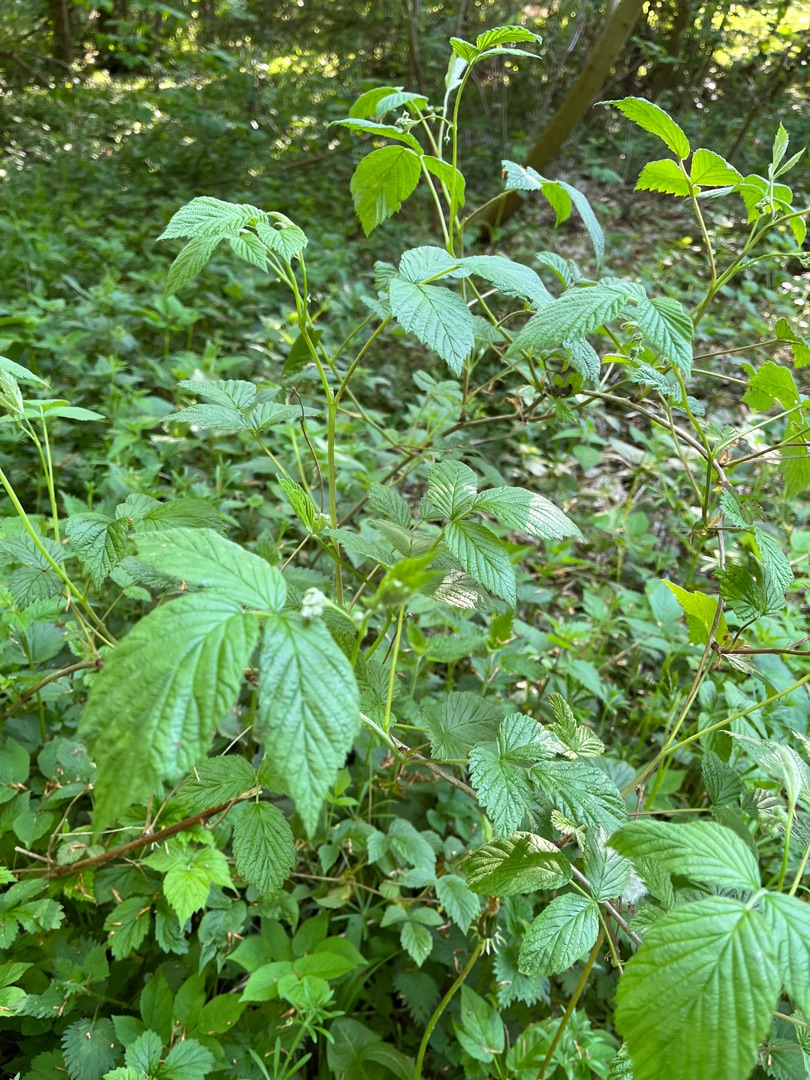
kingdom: Plantae
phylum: Tracheophyta
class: Magnoliopsida
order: Rosales
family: Rosaceae
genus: Rubus
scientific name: Rubus idaeus
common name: Hindbær
